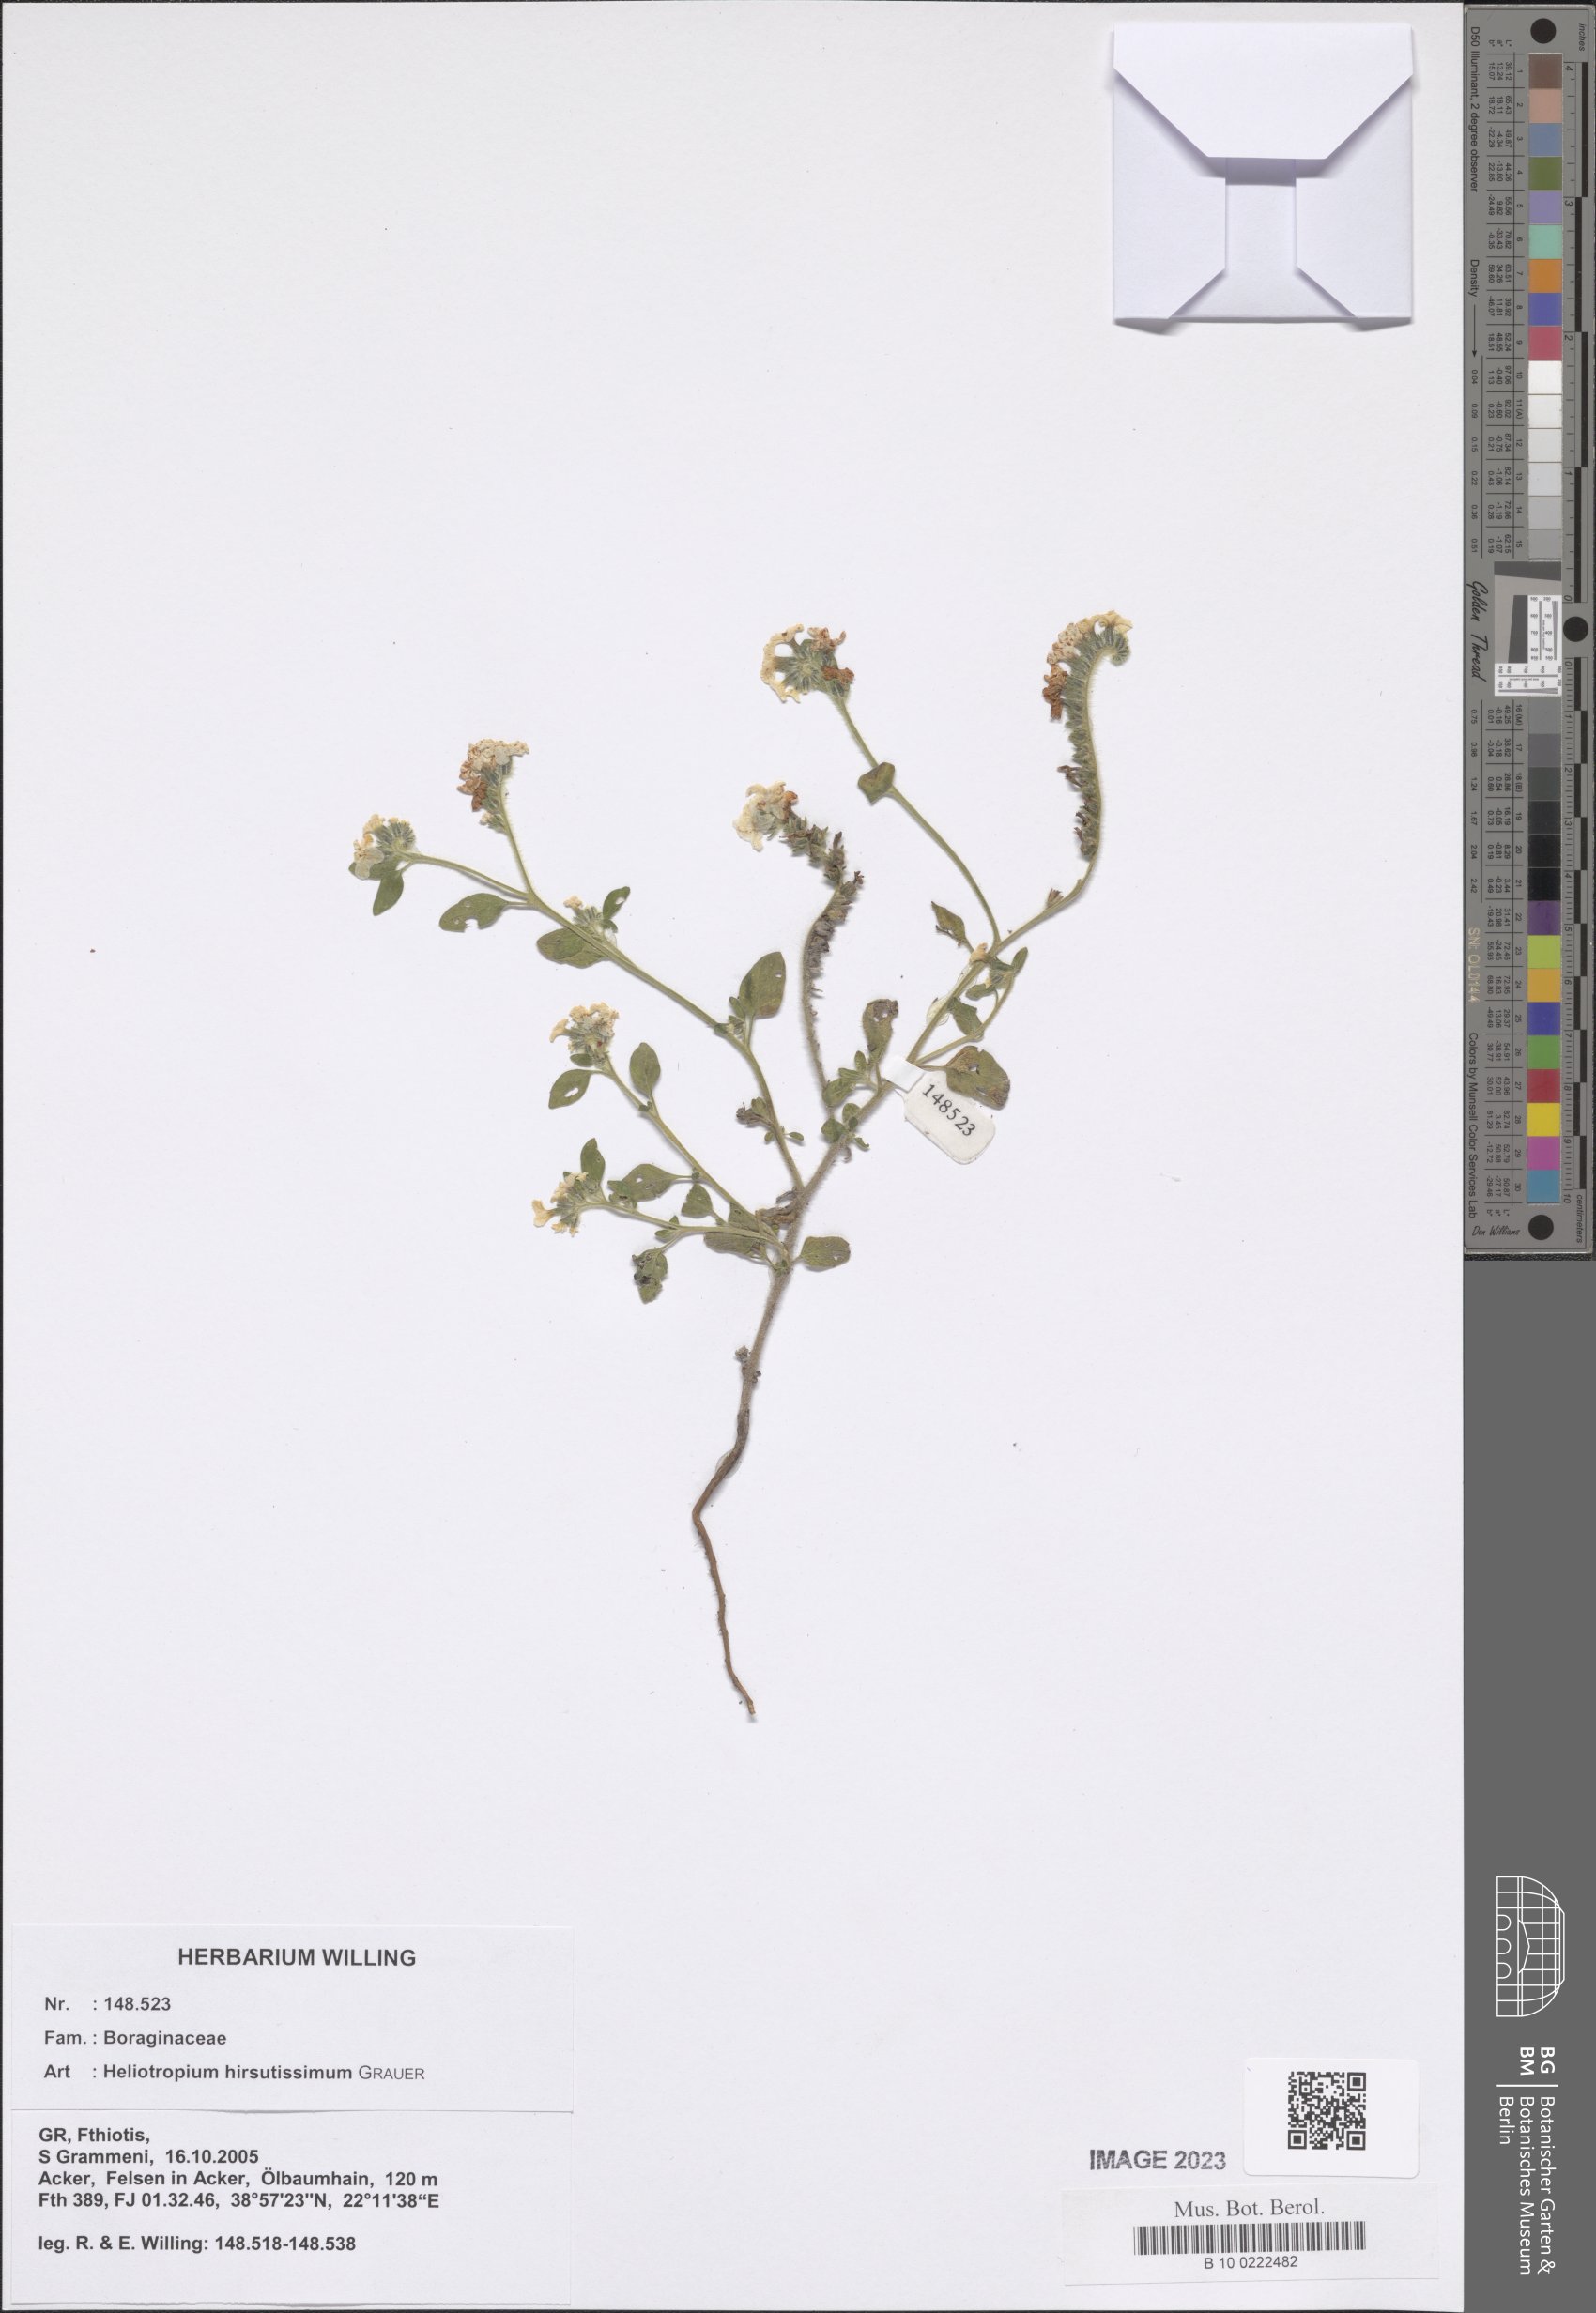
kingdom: Plantae
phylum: Tracheophyta
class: Magnoliopsida
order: Boraginales
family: Heliotropiaceae
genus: Heliotropium
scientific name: Heliotropium hirsutissimum
